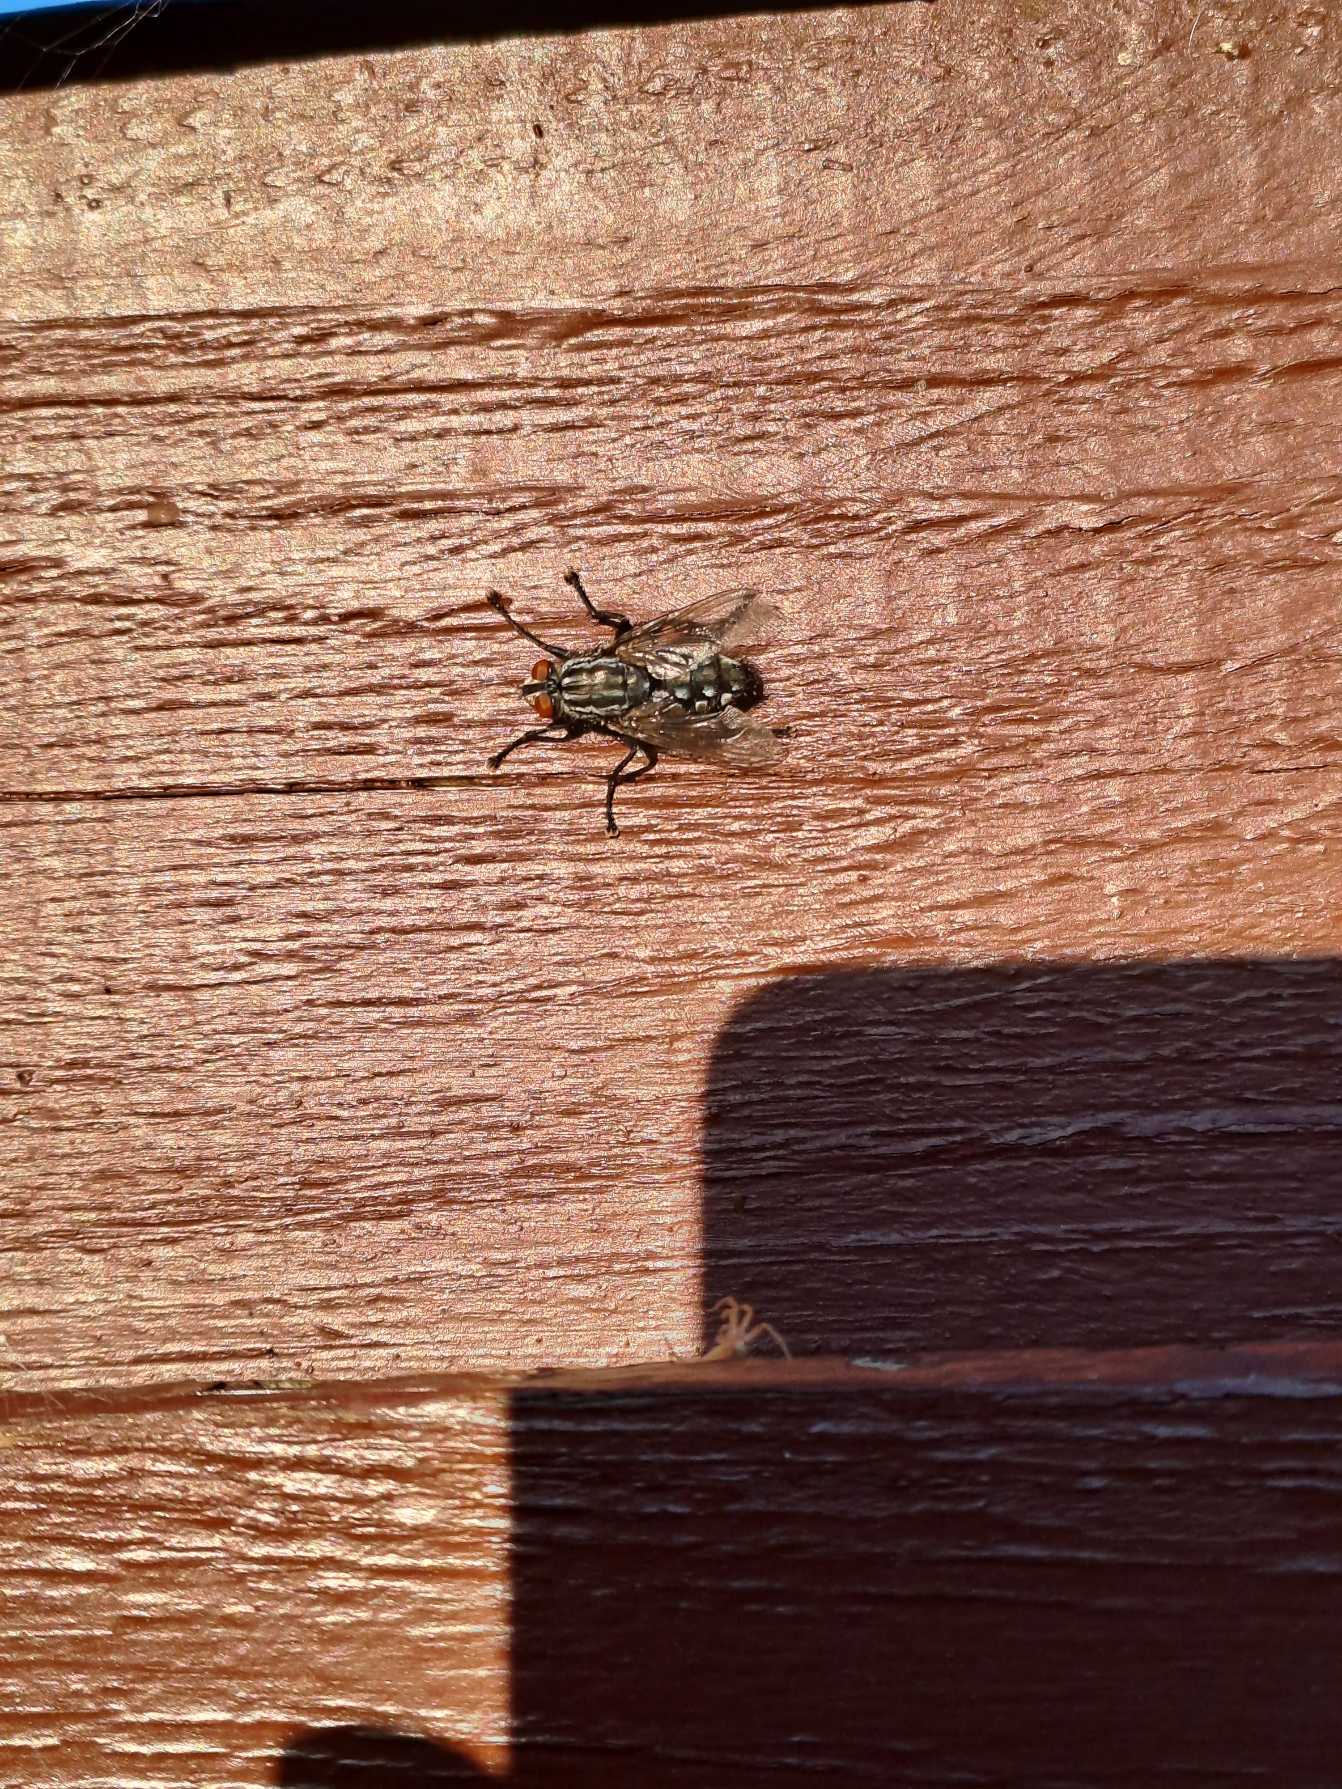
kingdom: Animalia
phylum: Arthropoda
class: Insecta
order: Diptera
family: Sarcophagidae
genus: Sarcophaga
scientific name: Sarcophaga
